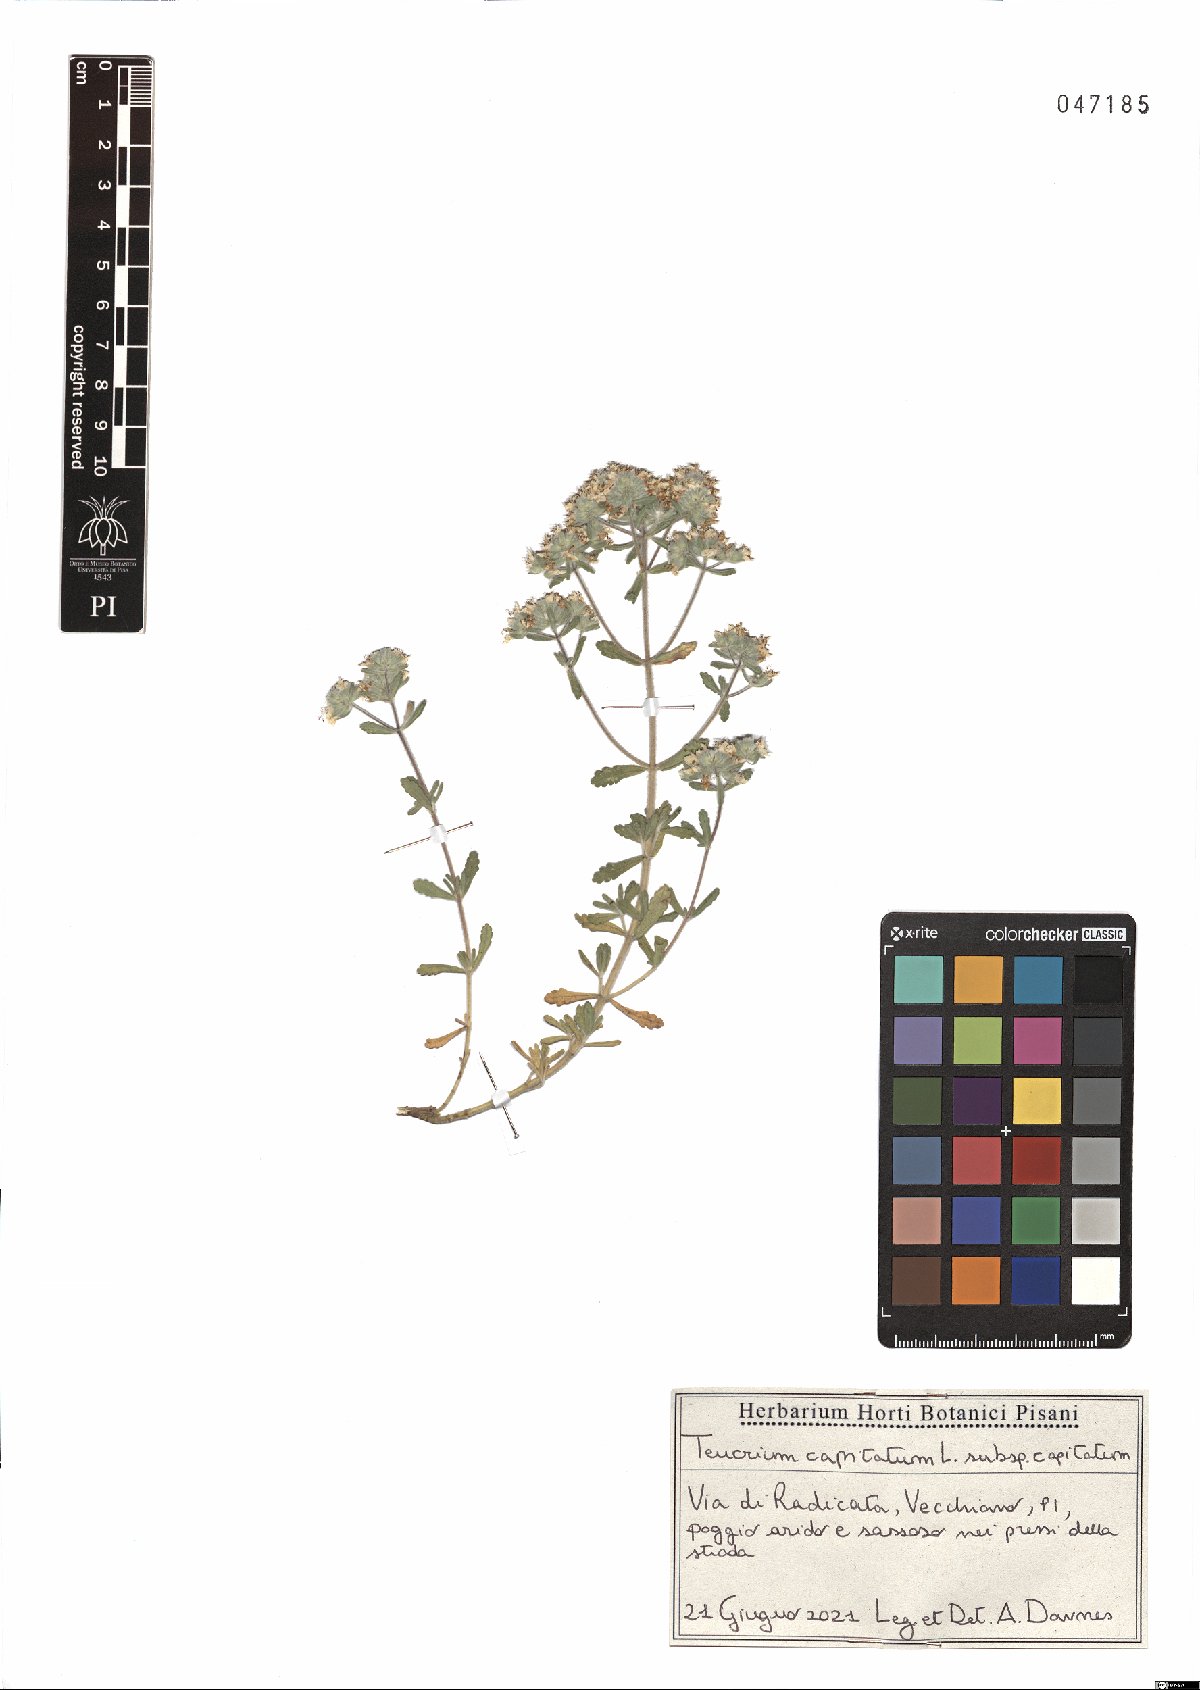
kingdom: Plantae
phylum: Tracheophyta
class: Magnoliopsida
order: Lamiales
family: Lamiaceae
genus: Teucrium
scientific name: Teucrium capitatum
